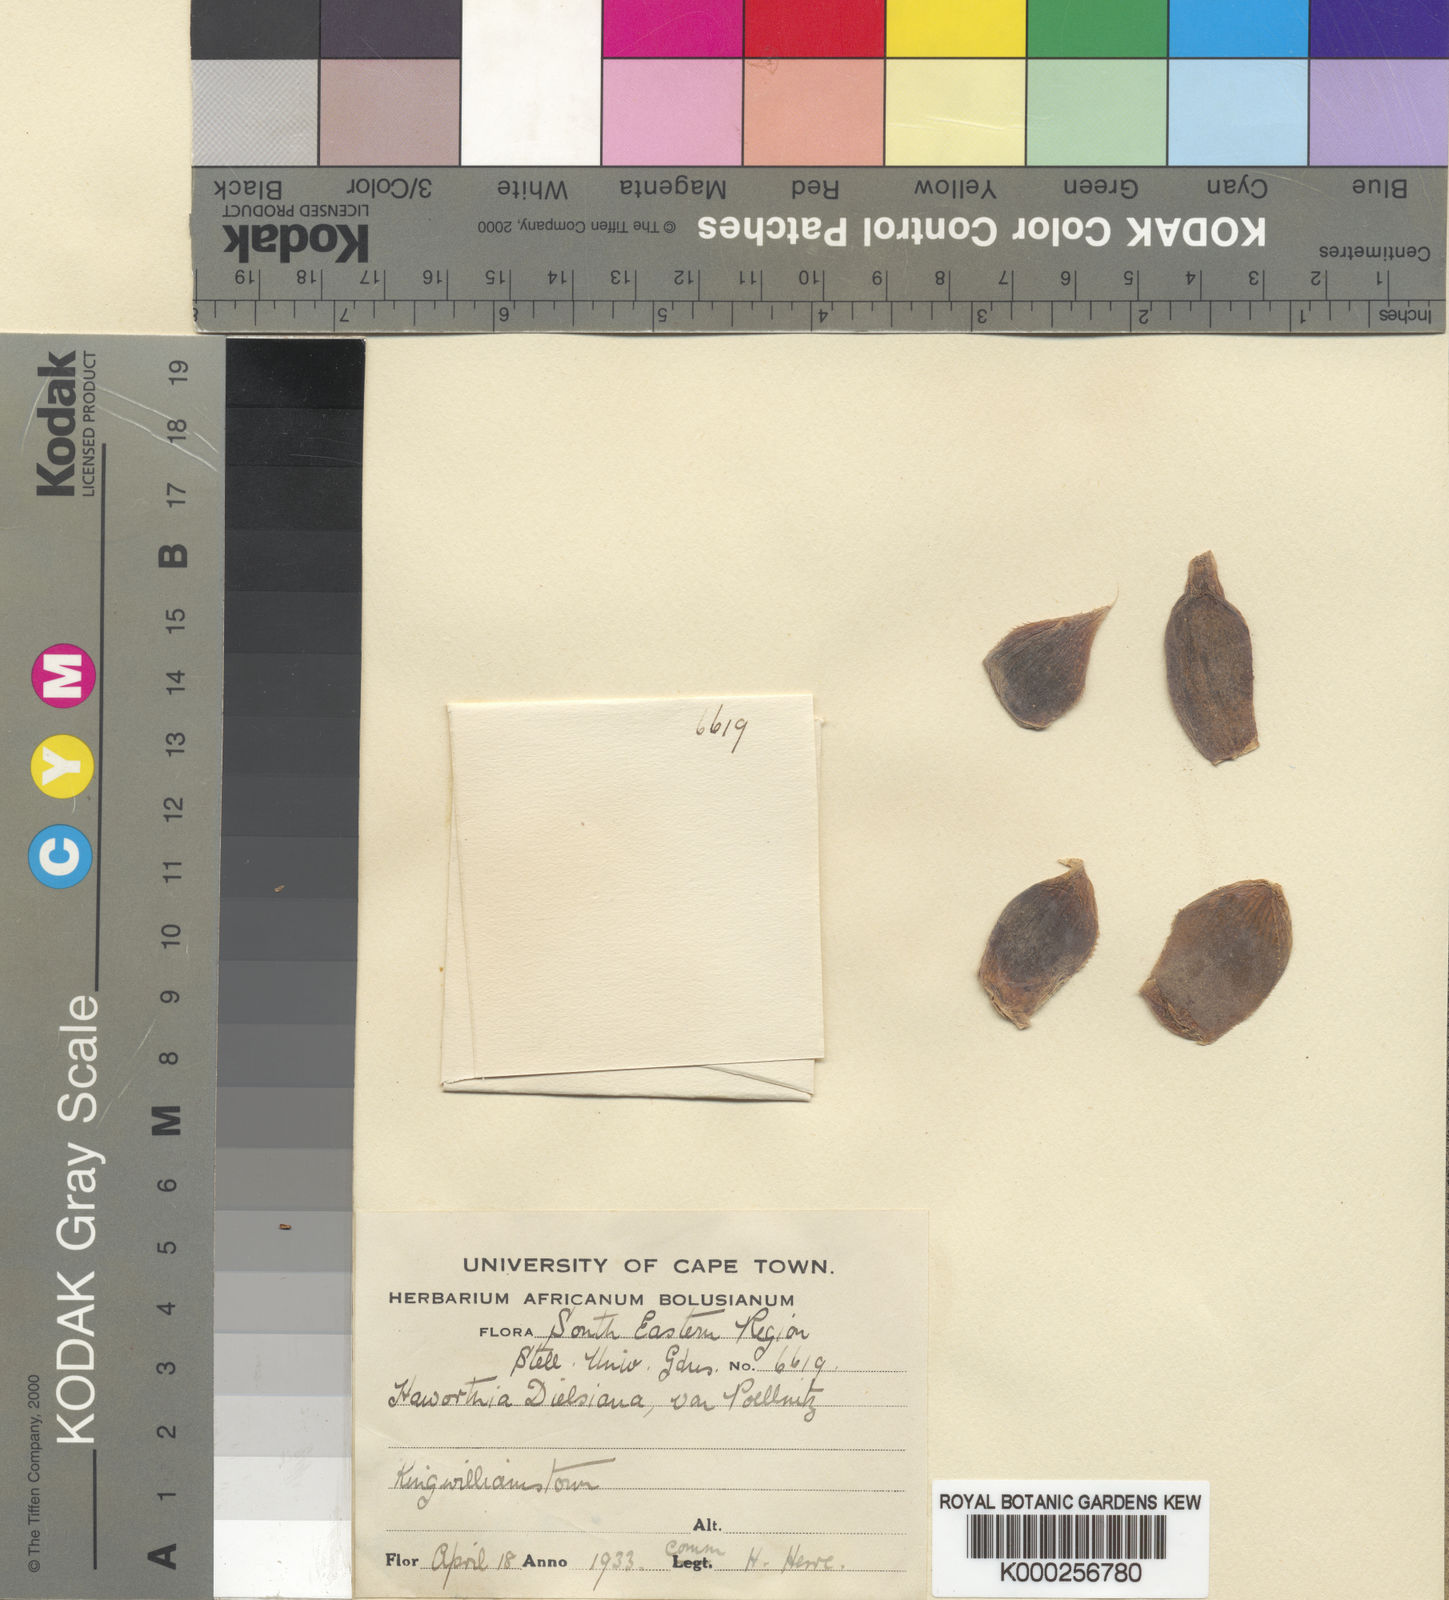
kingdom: Plantae
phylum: Tracheophyta
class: Liliopsida
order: Asparagales
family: Asphodelaceae
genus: Haworthia
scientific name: Haworthia cooperi
